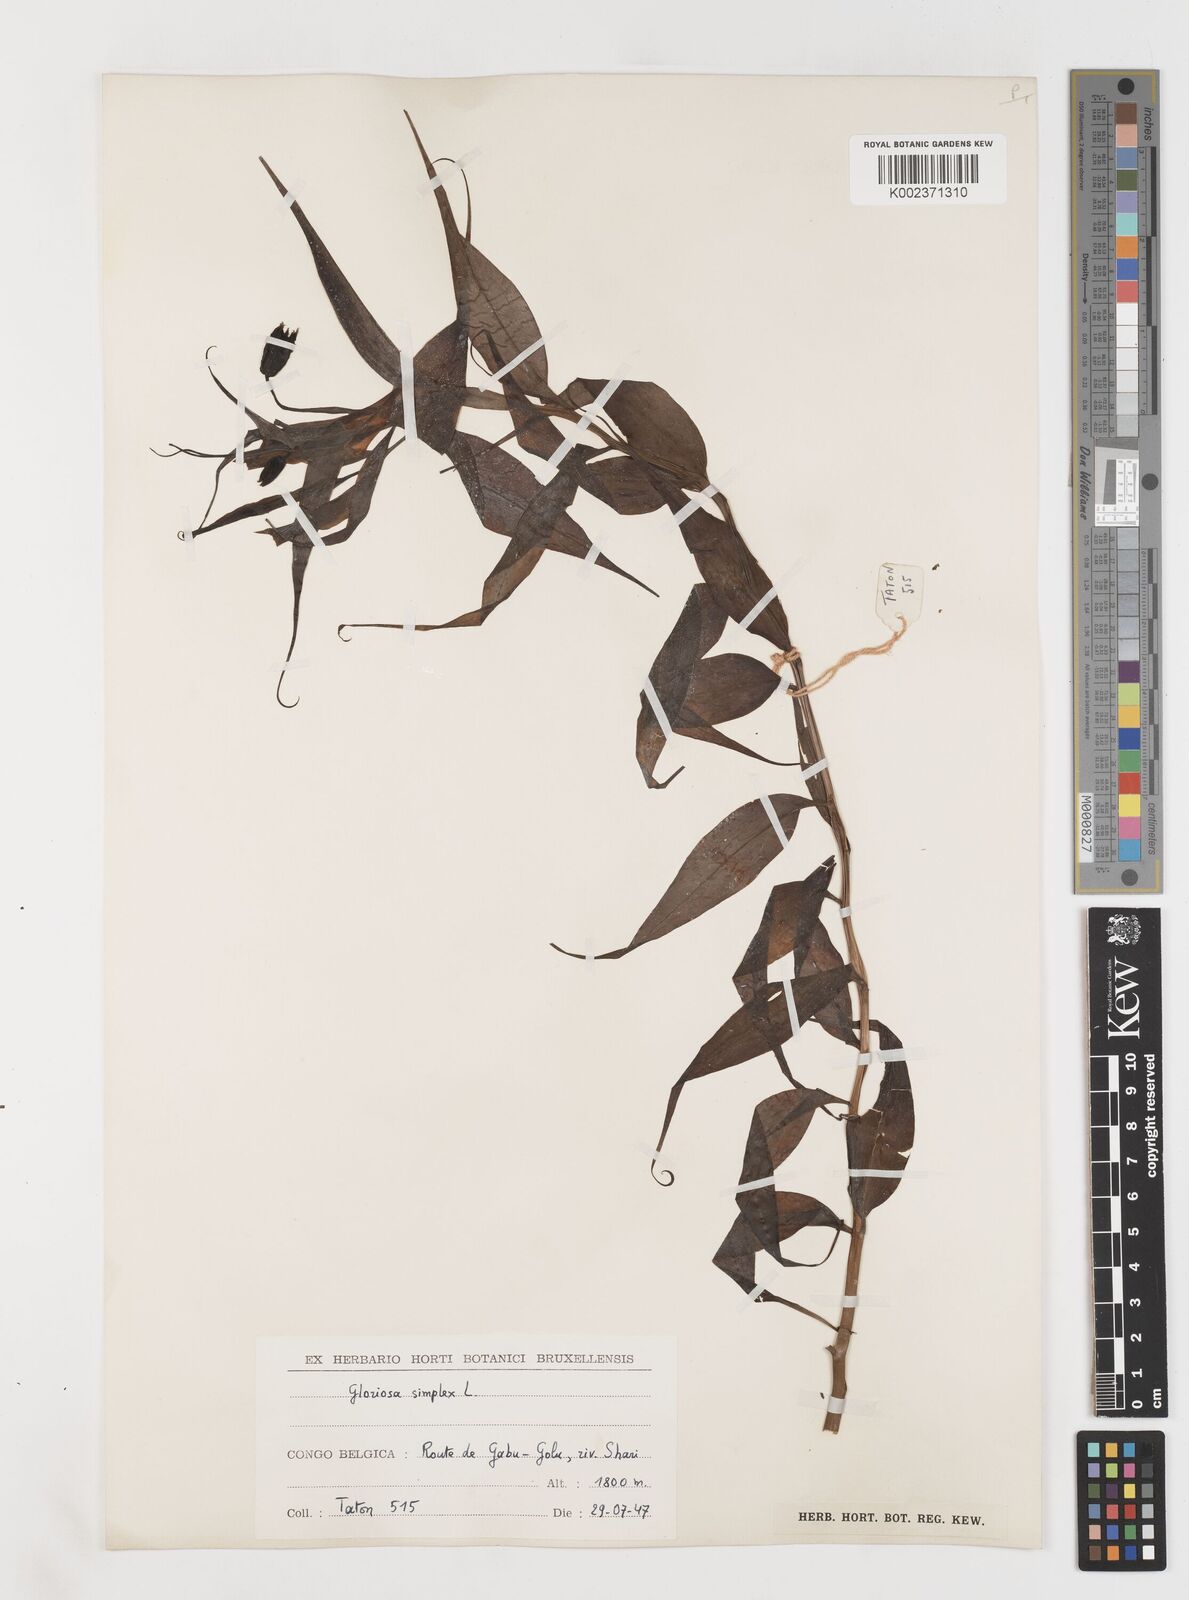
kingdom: Plantae
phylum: Tracheophyta
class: Liliopsida
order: Liliales
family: Colchicaceae
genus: Gloriosa
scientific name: Gloriosa simplex
